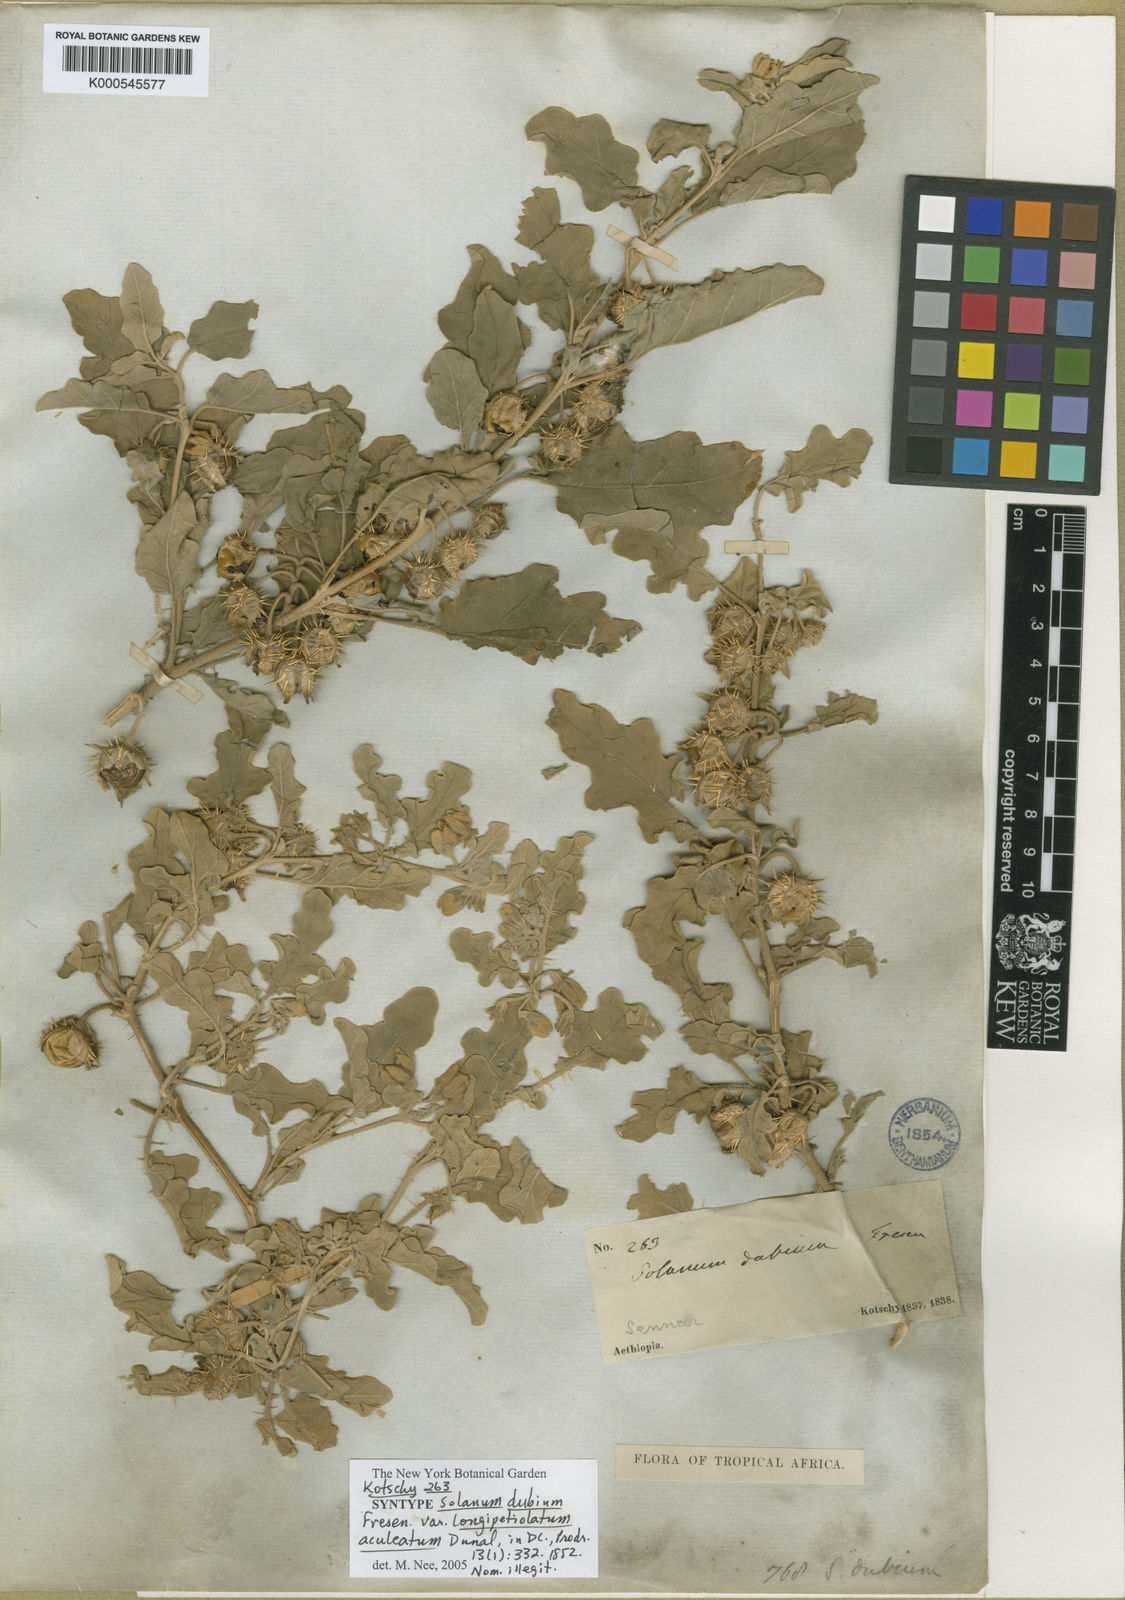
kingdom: Plantae
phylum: Tracheophyta
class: Magnoliopsida
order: Solanales
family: Solanaceae
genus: Solanum
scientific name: Solanum coagulans
